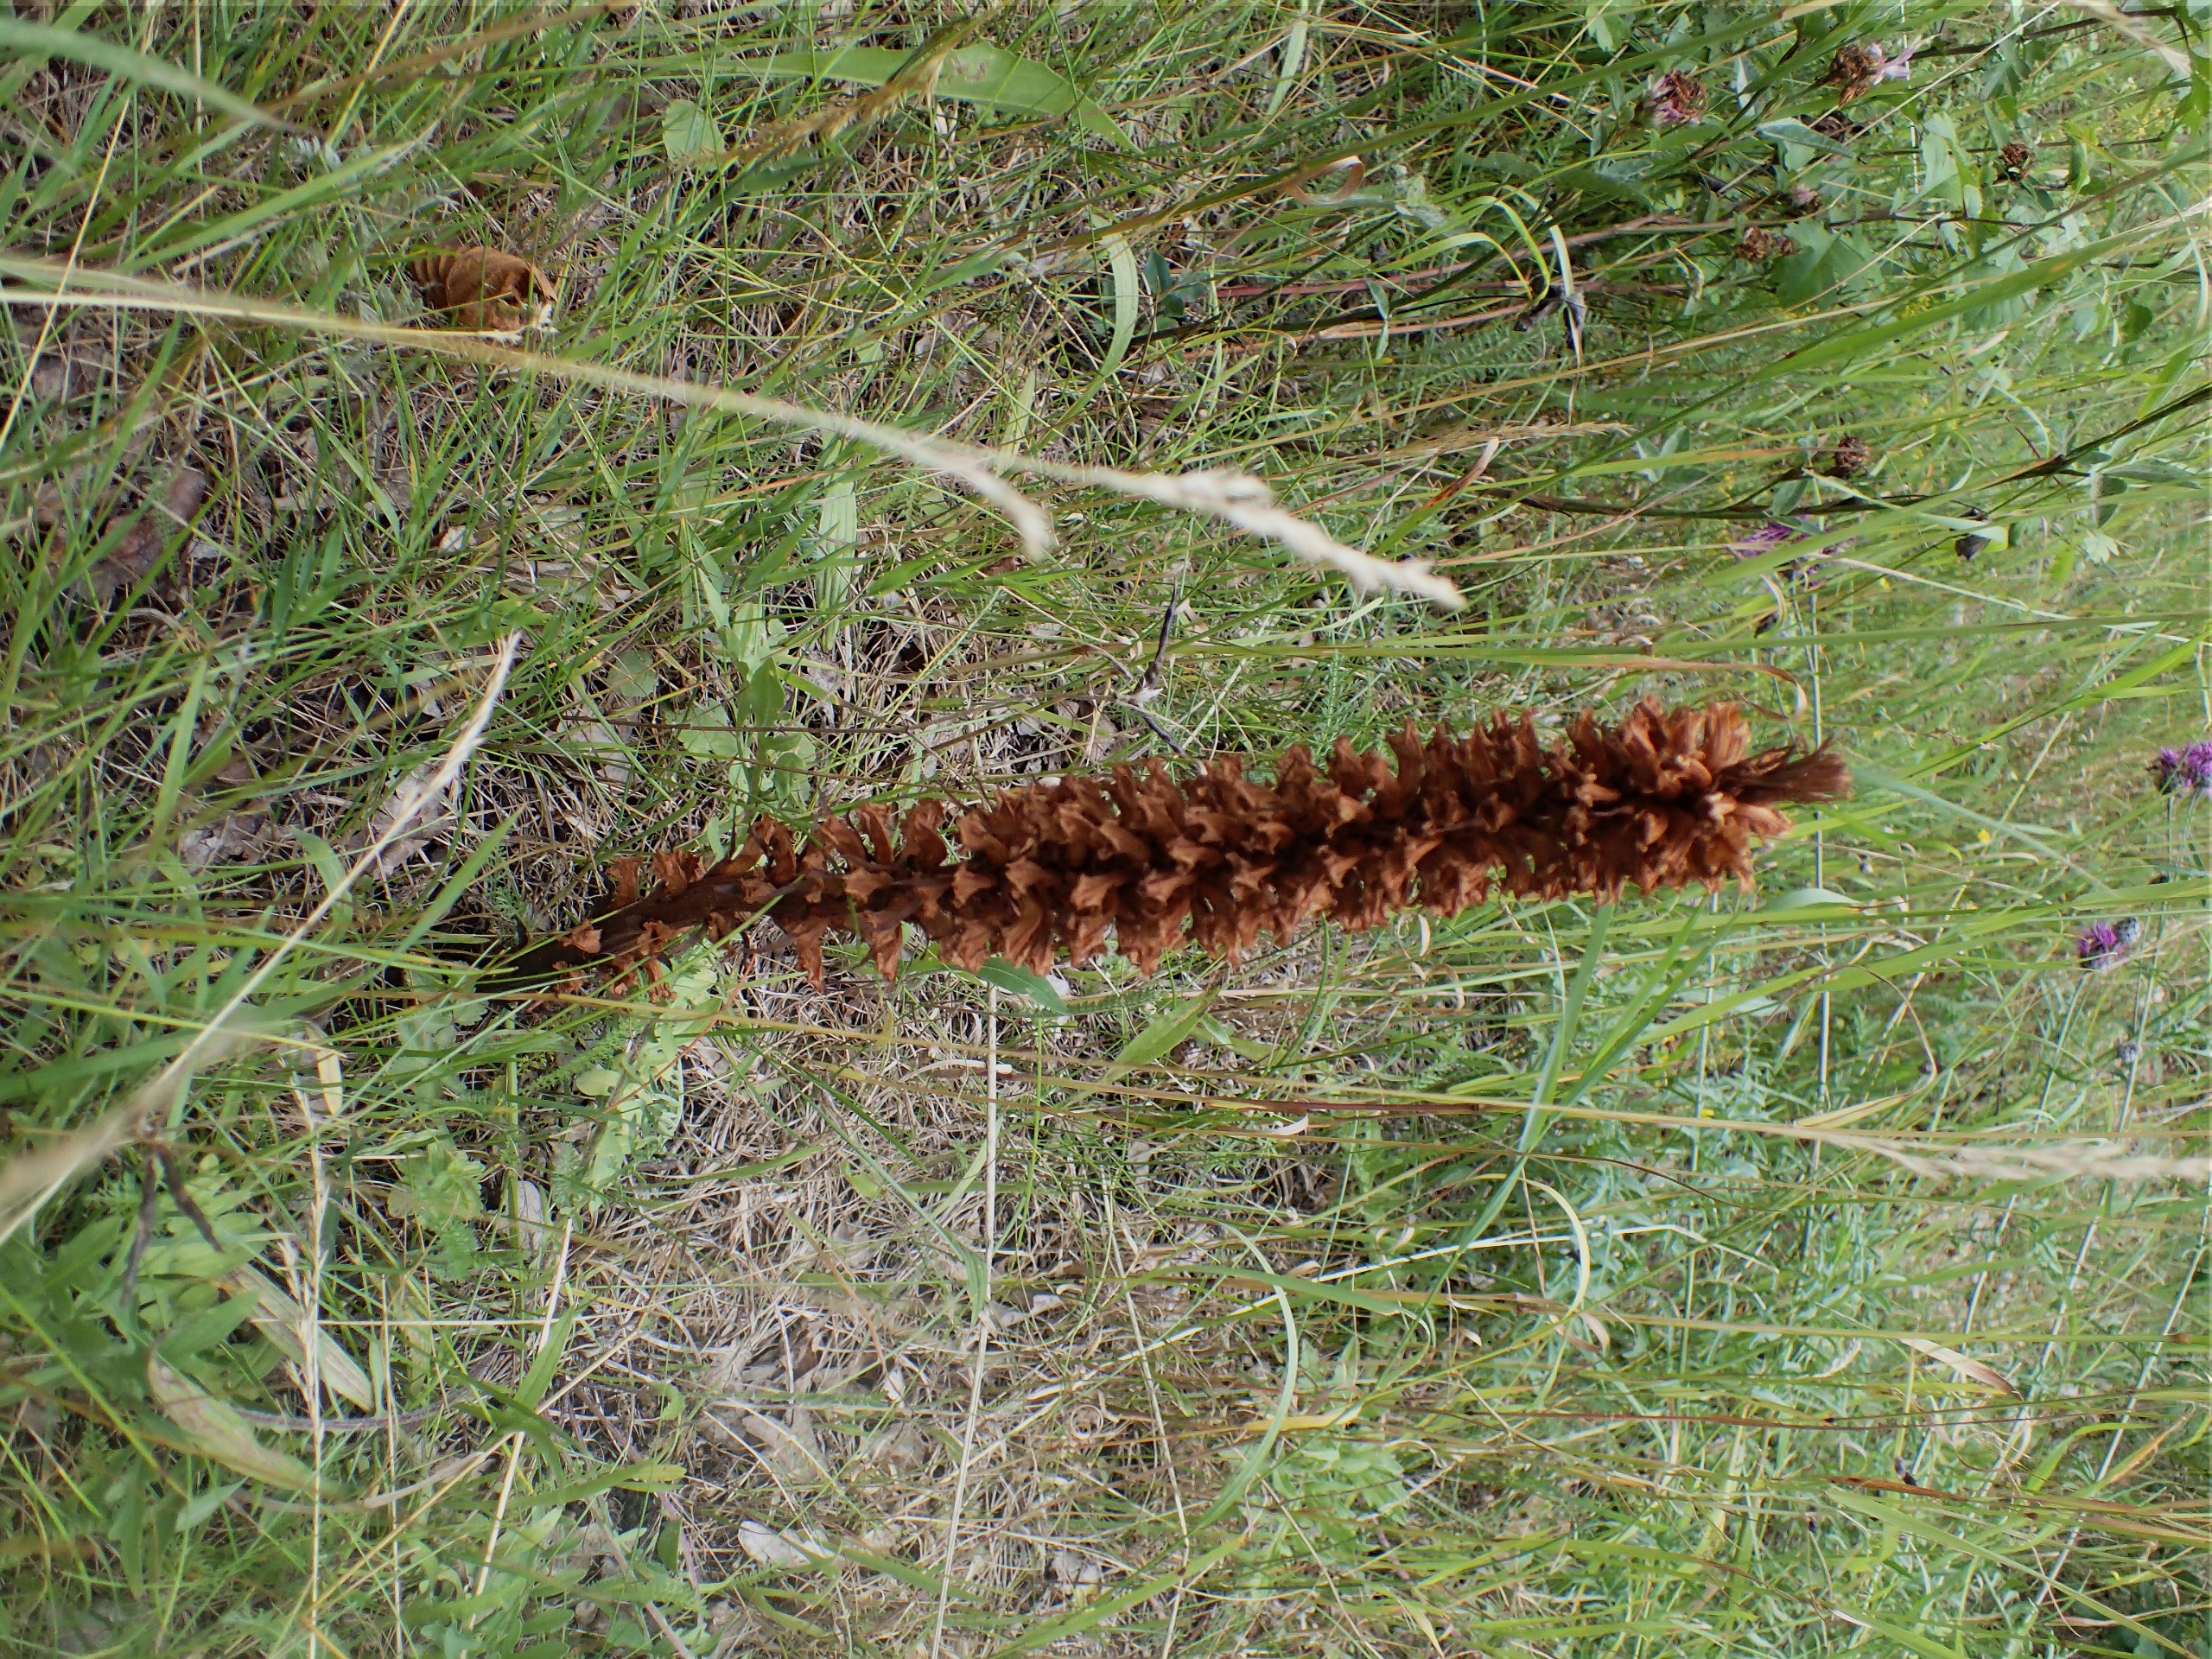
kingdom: Plantae
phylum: Tracheophyta
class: Magnoliopsida
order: Lamiales
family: Orobanchaceae
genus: Orobanche
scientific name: Orobanche elatior
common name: Stor gyvelkvæler
